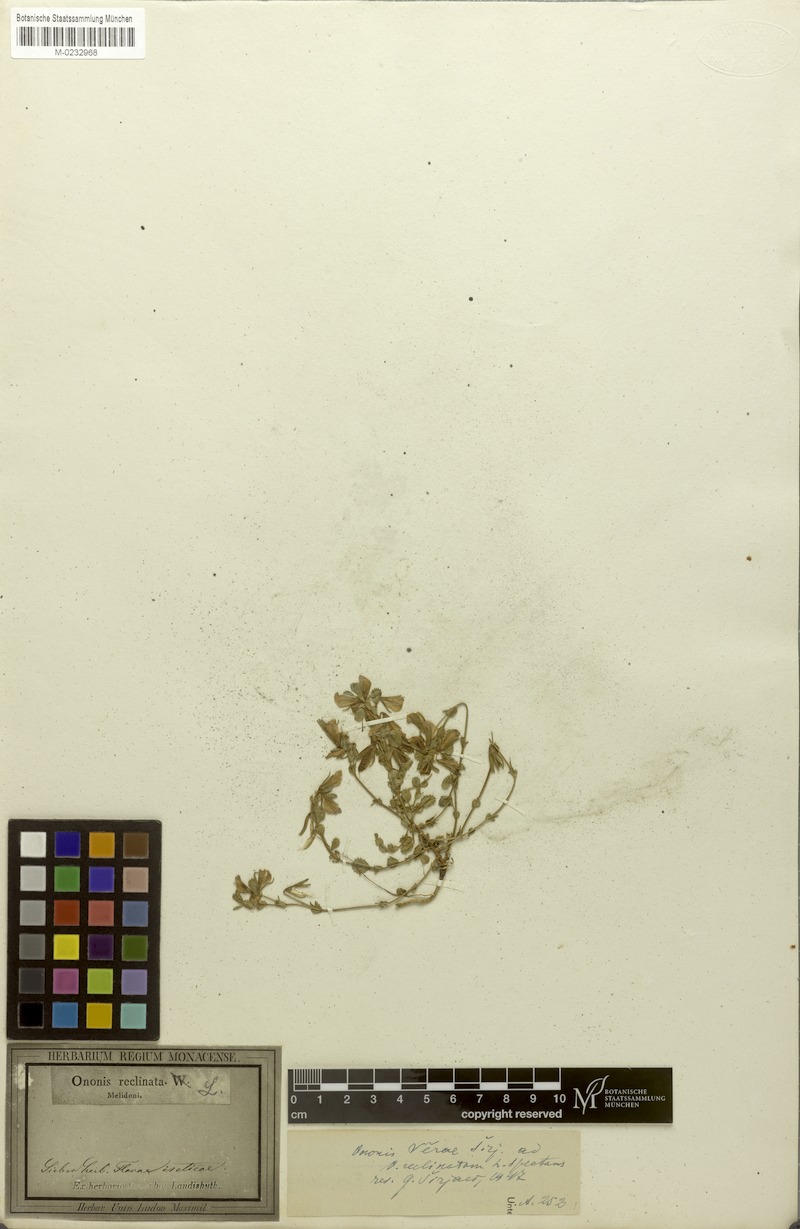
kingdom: Plantae
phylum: Tracheophyta
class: Magnoliopsida
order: Fabales
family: Fabaceae
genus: Ononis
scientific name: Ononis verae
